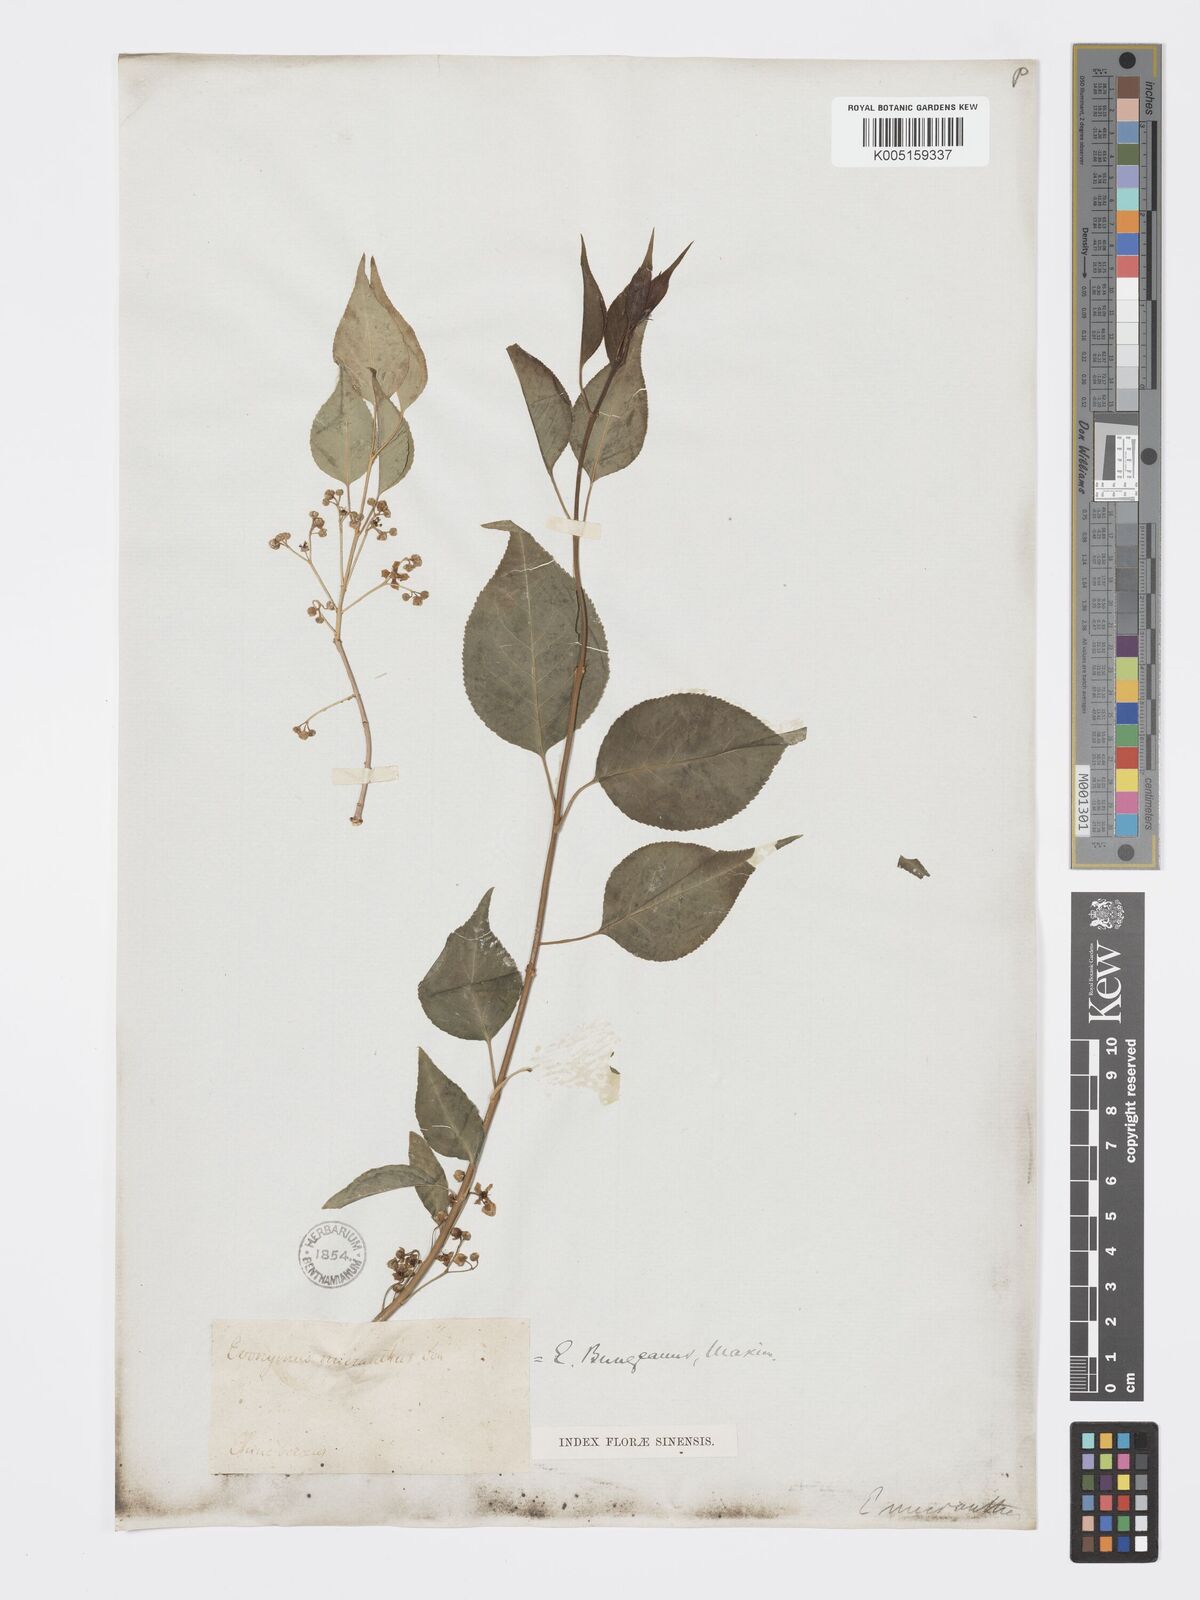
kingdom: Plantae
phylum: Tracheophyta
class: Magnoliopsida
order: Celastrales
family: Celastraceae
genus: Euonymus
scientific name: Euonymus maackii
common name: Hamilton's spindletree
